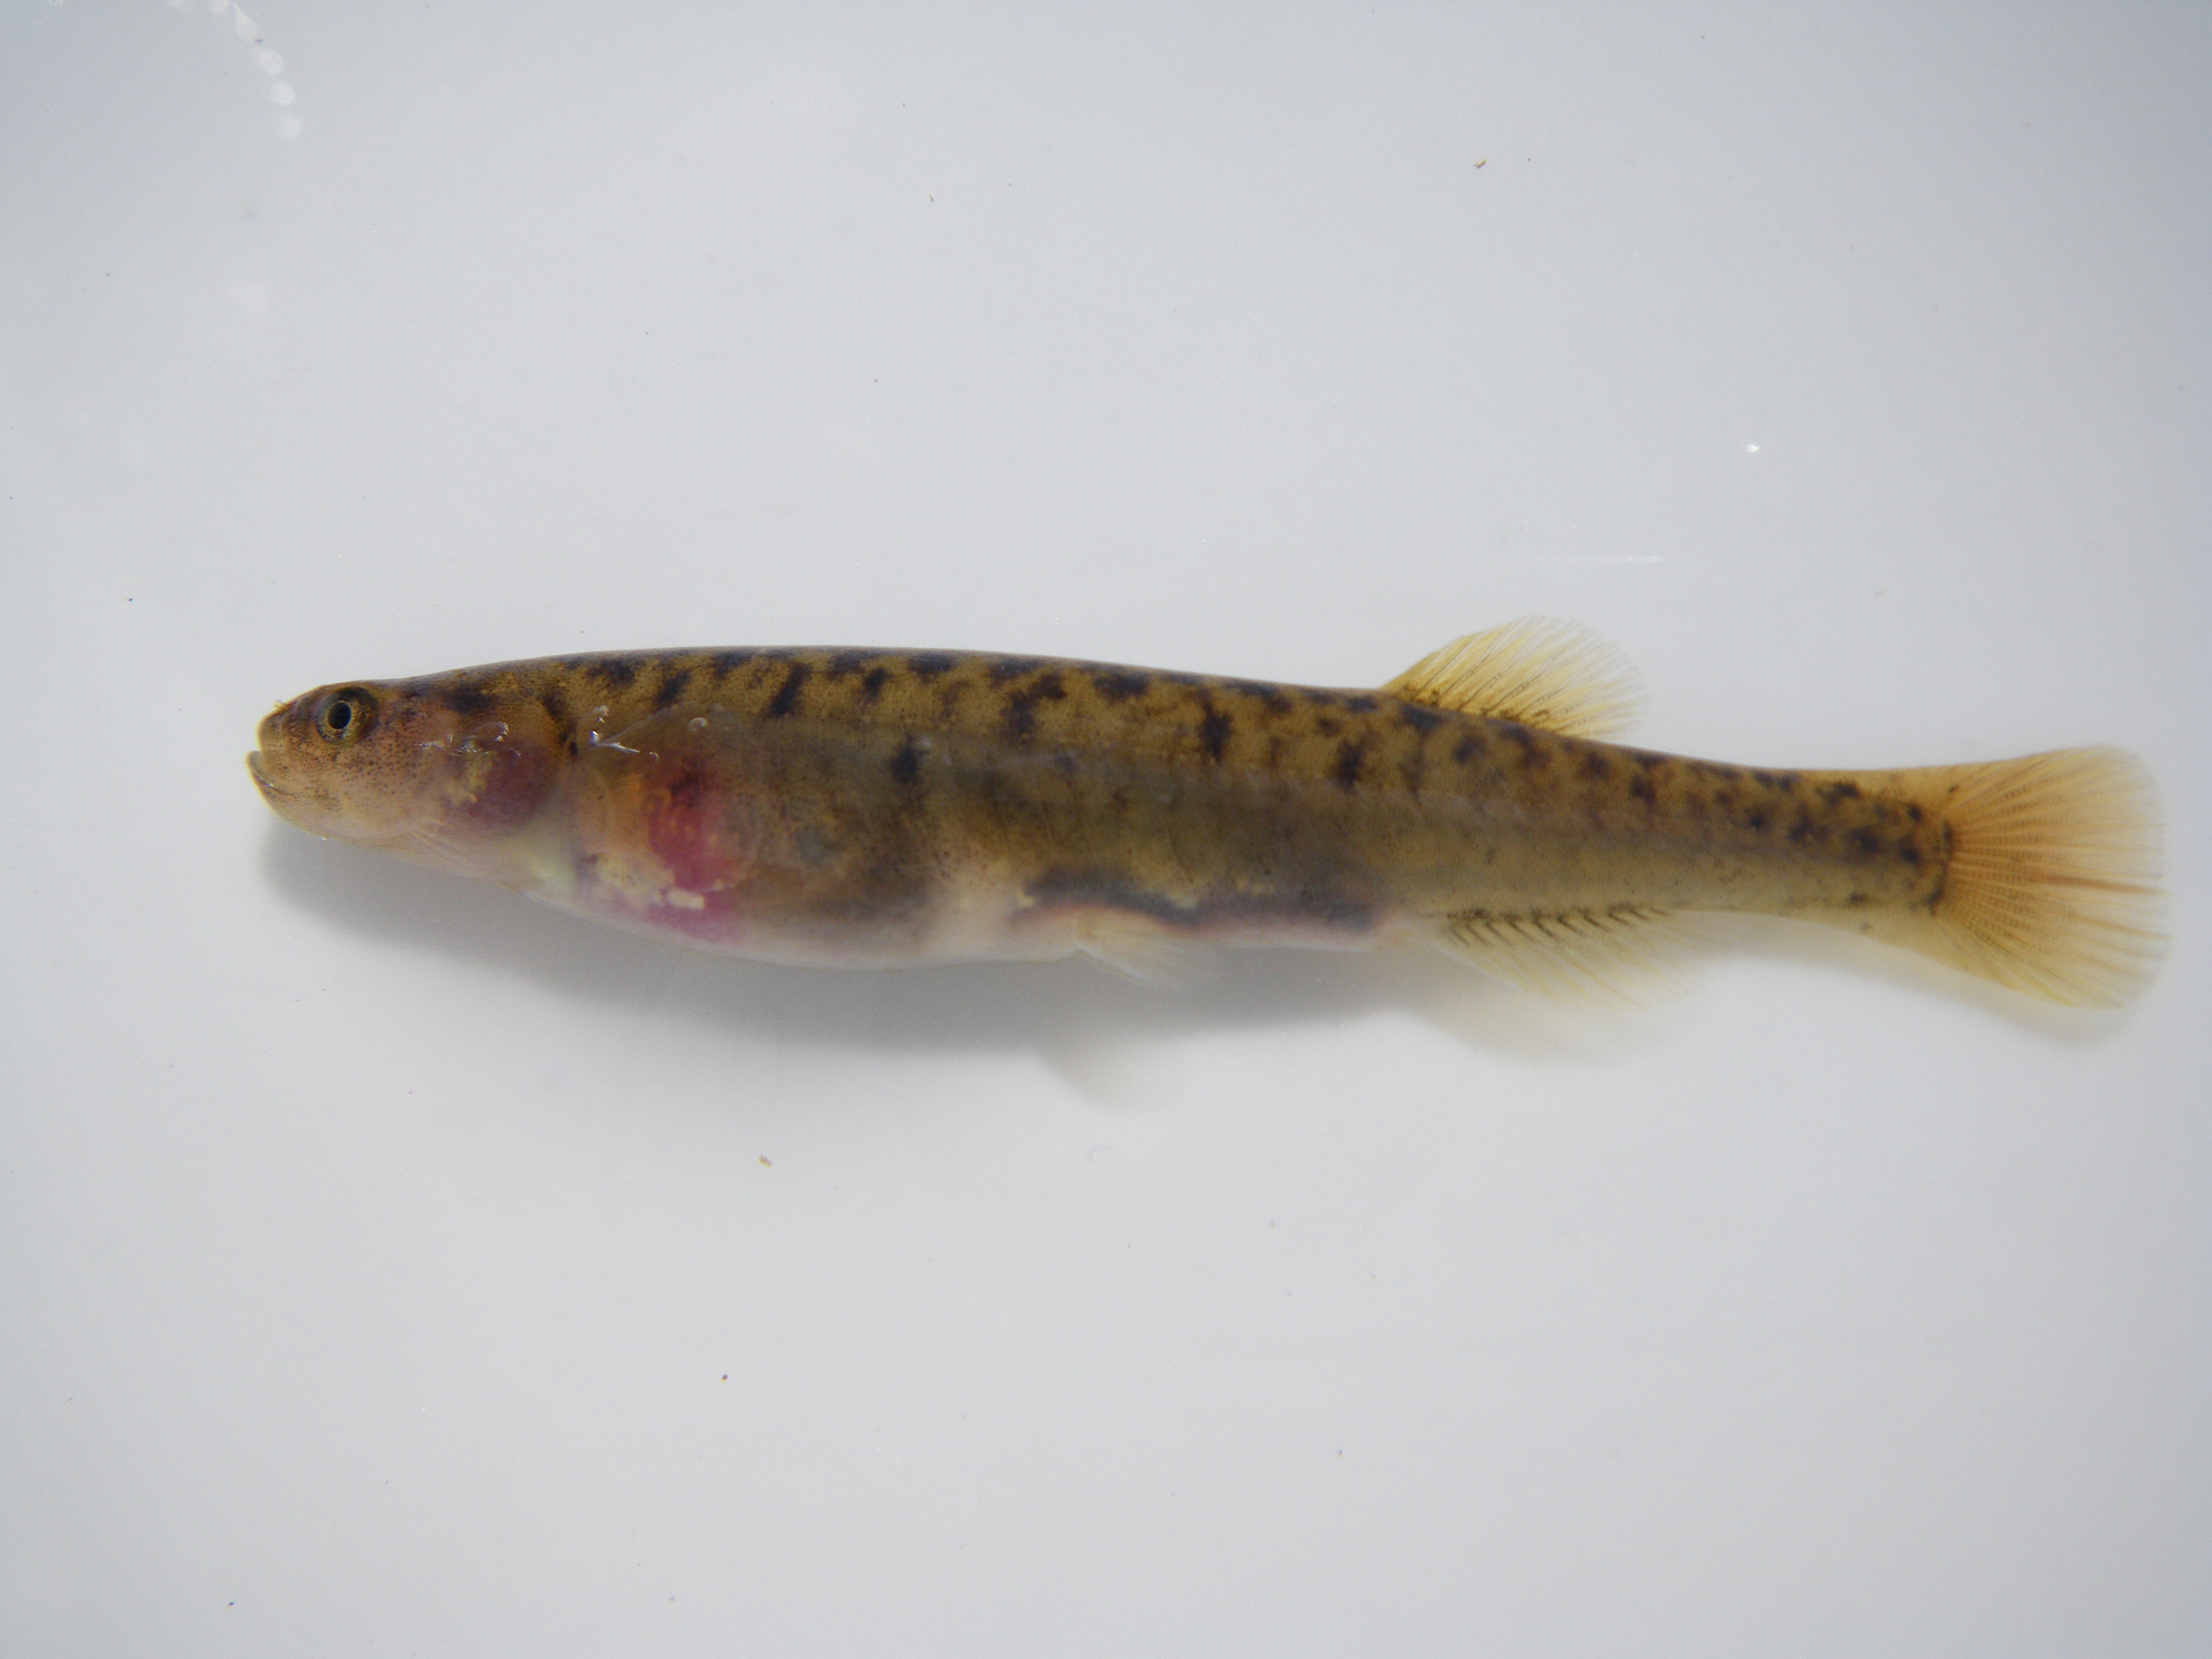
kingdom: Animalia
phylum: Chordata
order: Osmeriformes
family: Galaxiidae
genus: Galaxias
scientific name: Galaxias
